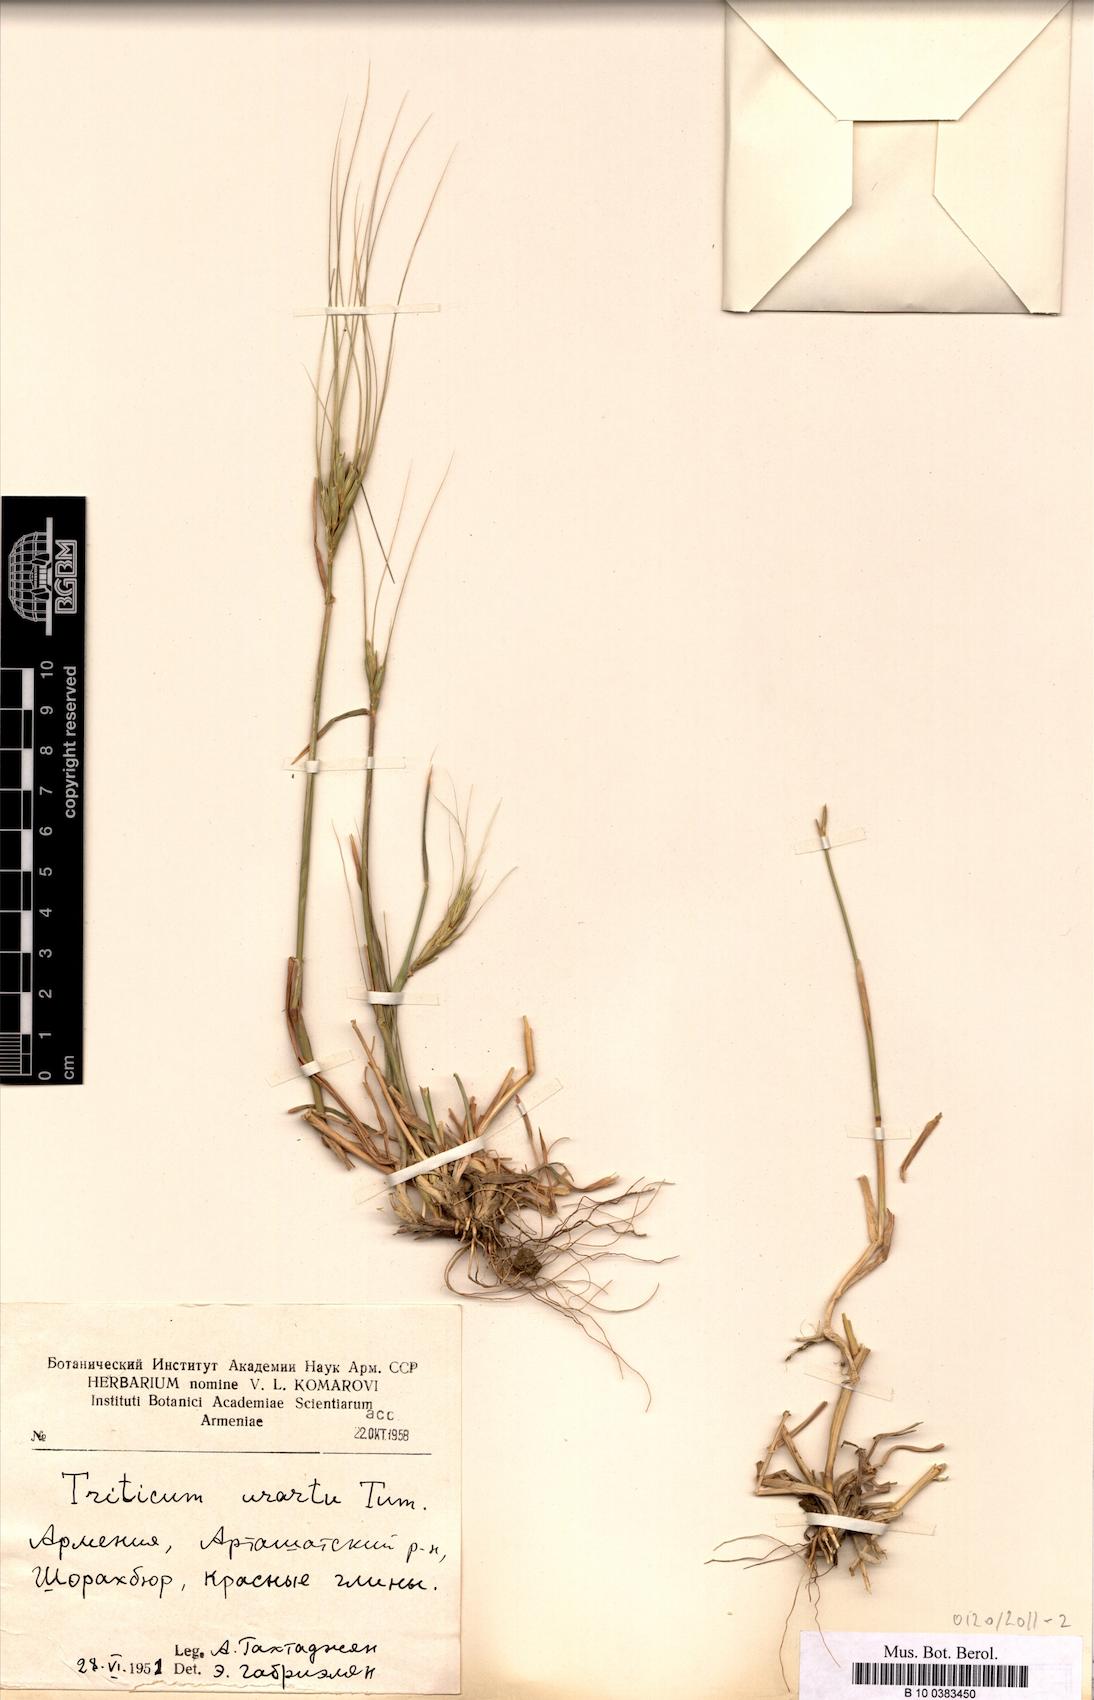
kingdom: Plantae
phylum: Tracheophyta
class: Liliopsida
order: Poales
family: Poaceae
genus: Triticum
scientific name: Triticum urartu
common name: Red wild einkorn
